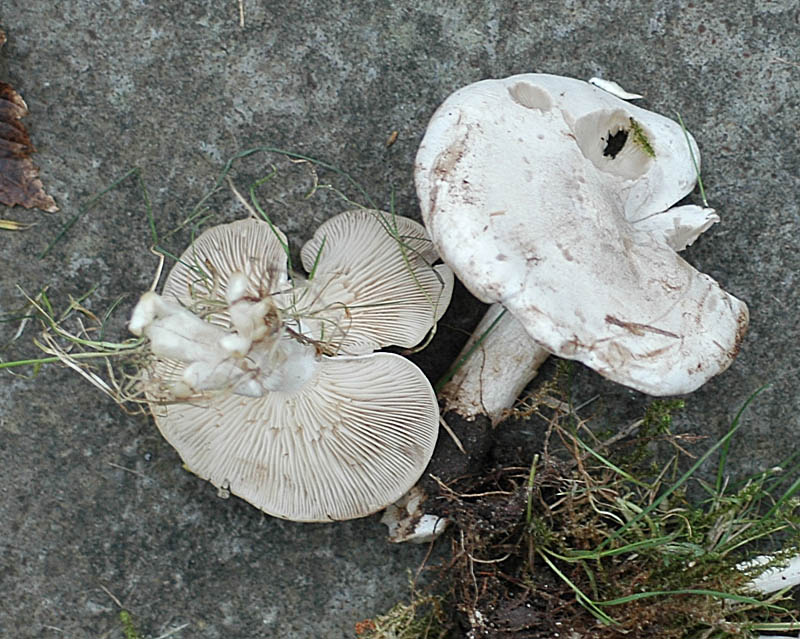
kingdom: Fungi
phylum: Basidiomycota
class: Agaricomycetes
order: Agaricales
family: Tricholomataceae
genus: Clitocybe
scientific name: Clitocybe rivulosa
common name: eng-tragthat
